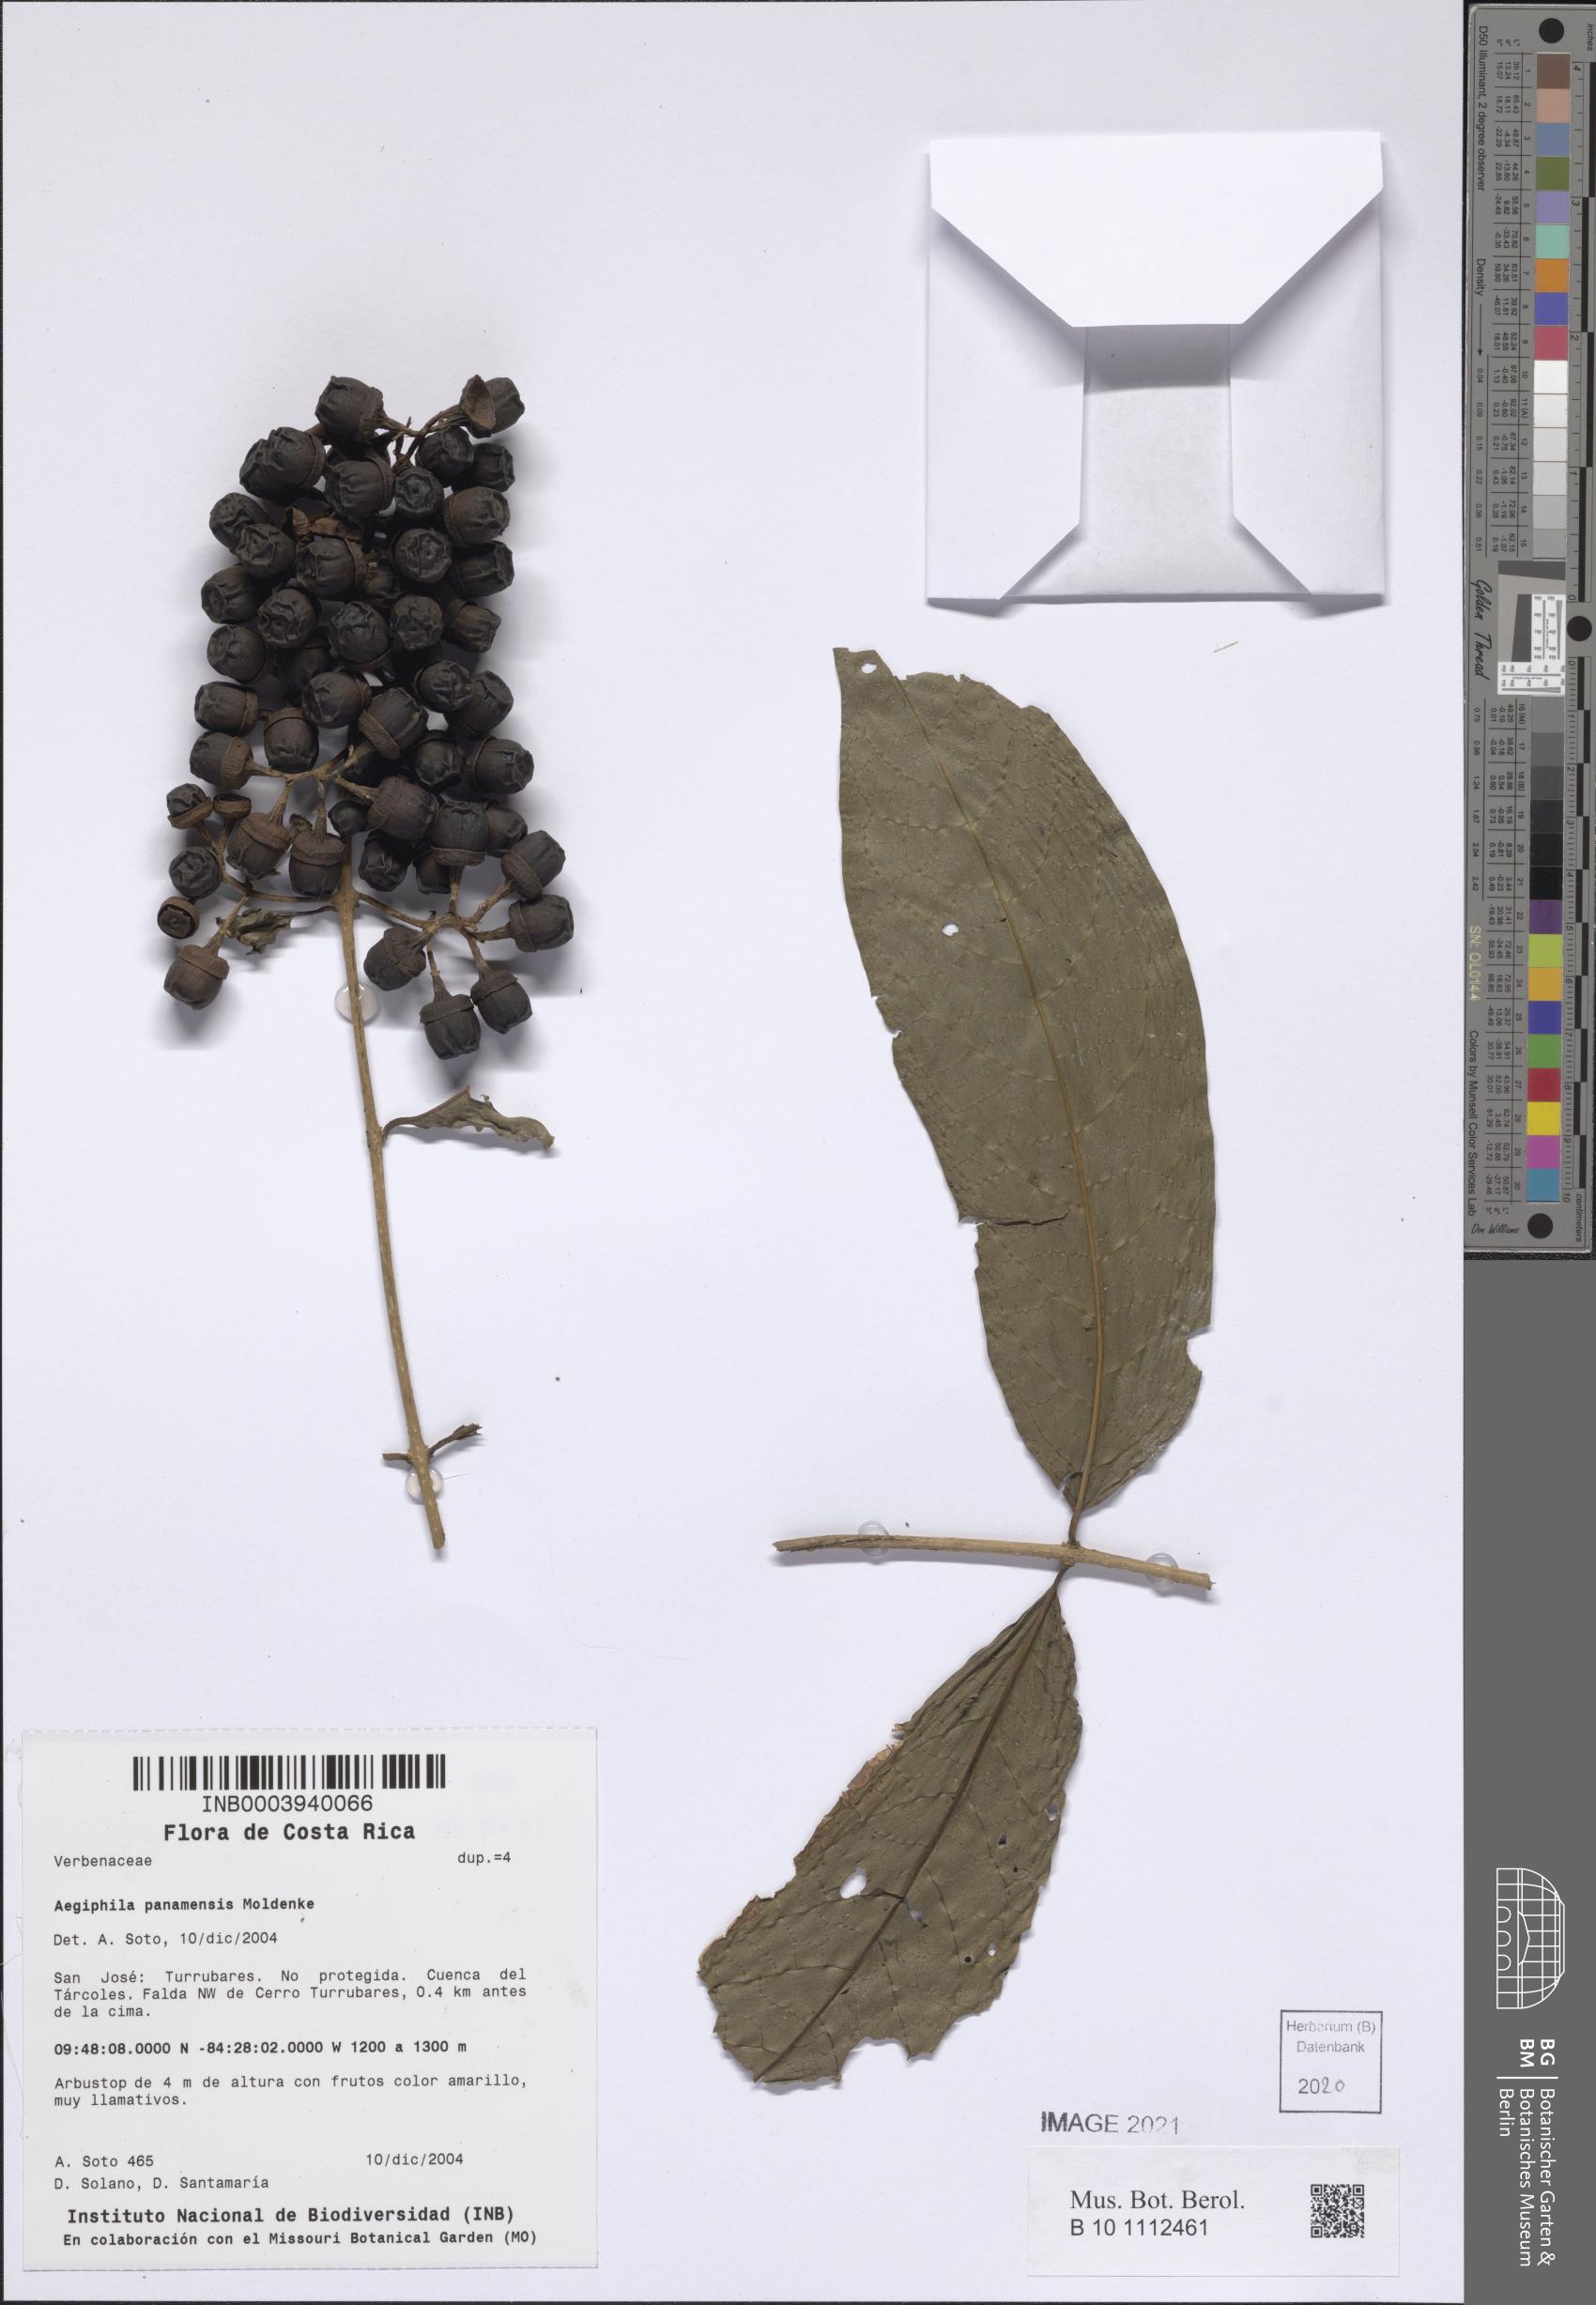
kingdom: Plantae
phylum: Tracheophyta
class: Magnoliopsida
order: Lamiales
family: Lamiaceae
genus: Aegiphila
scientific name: Aegiphila panamensis
